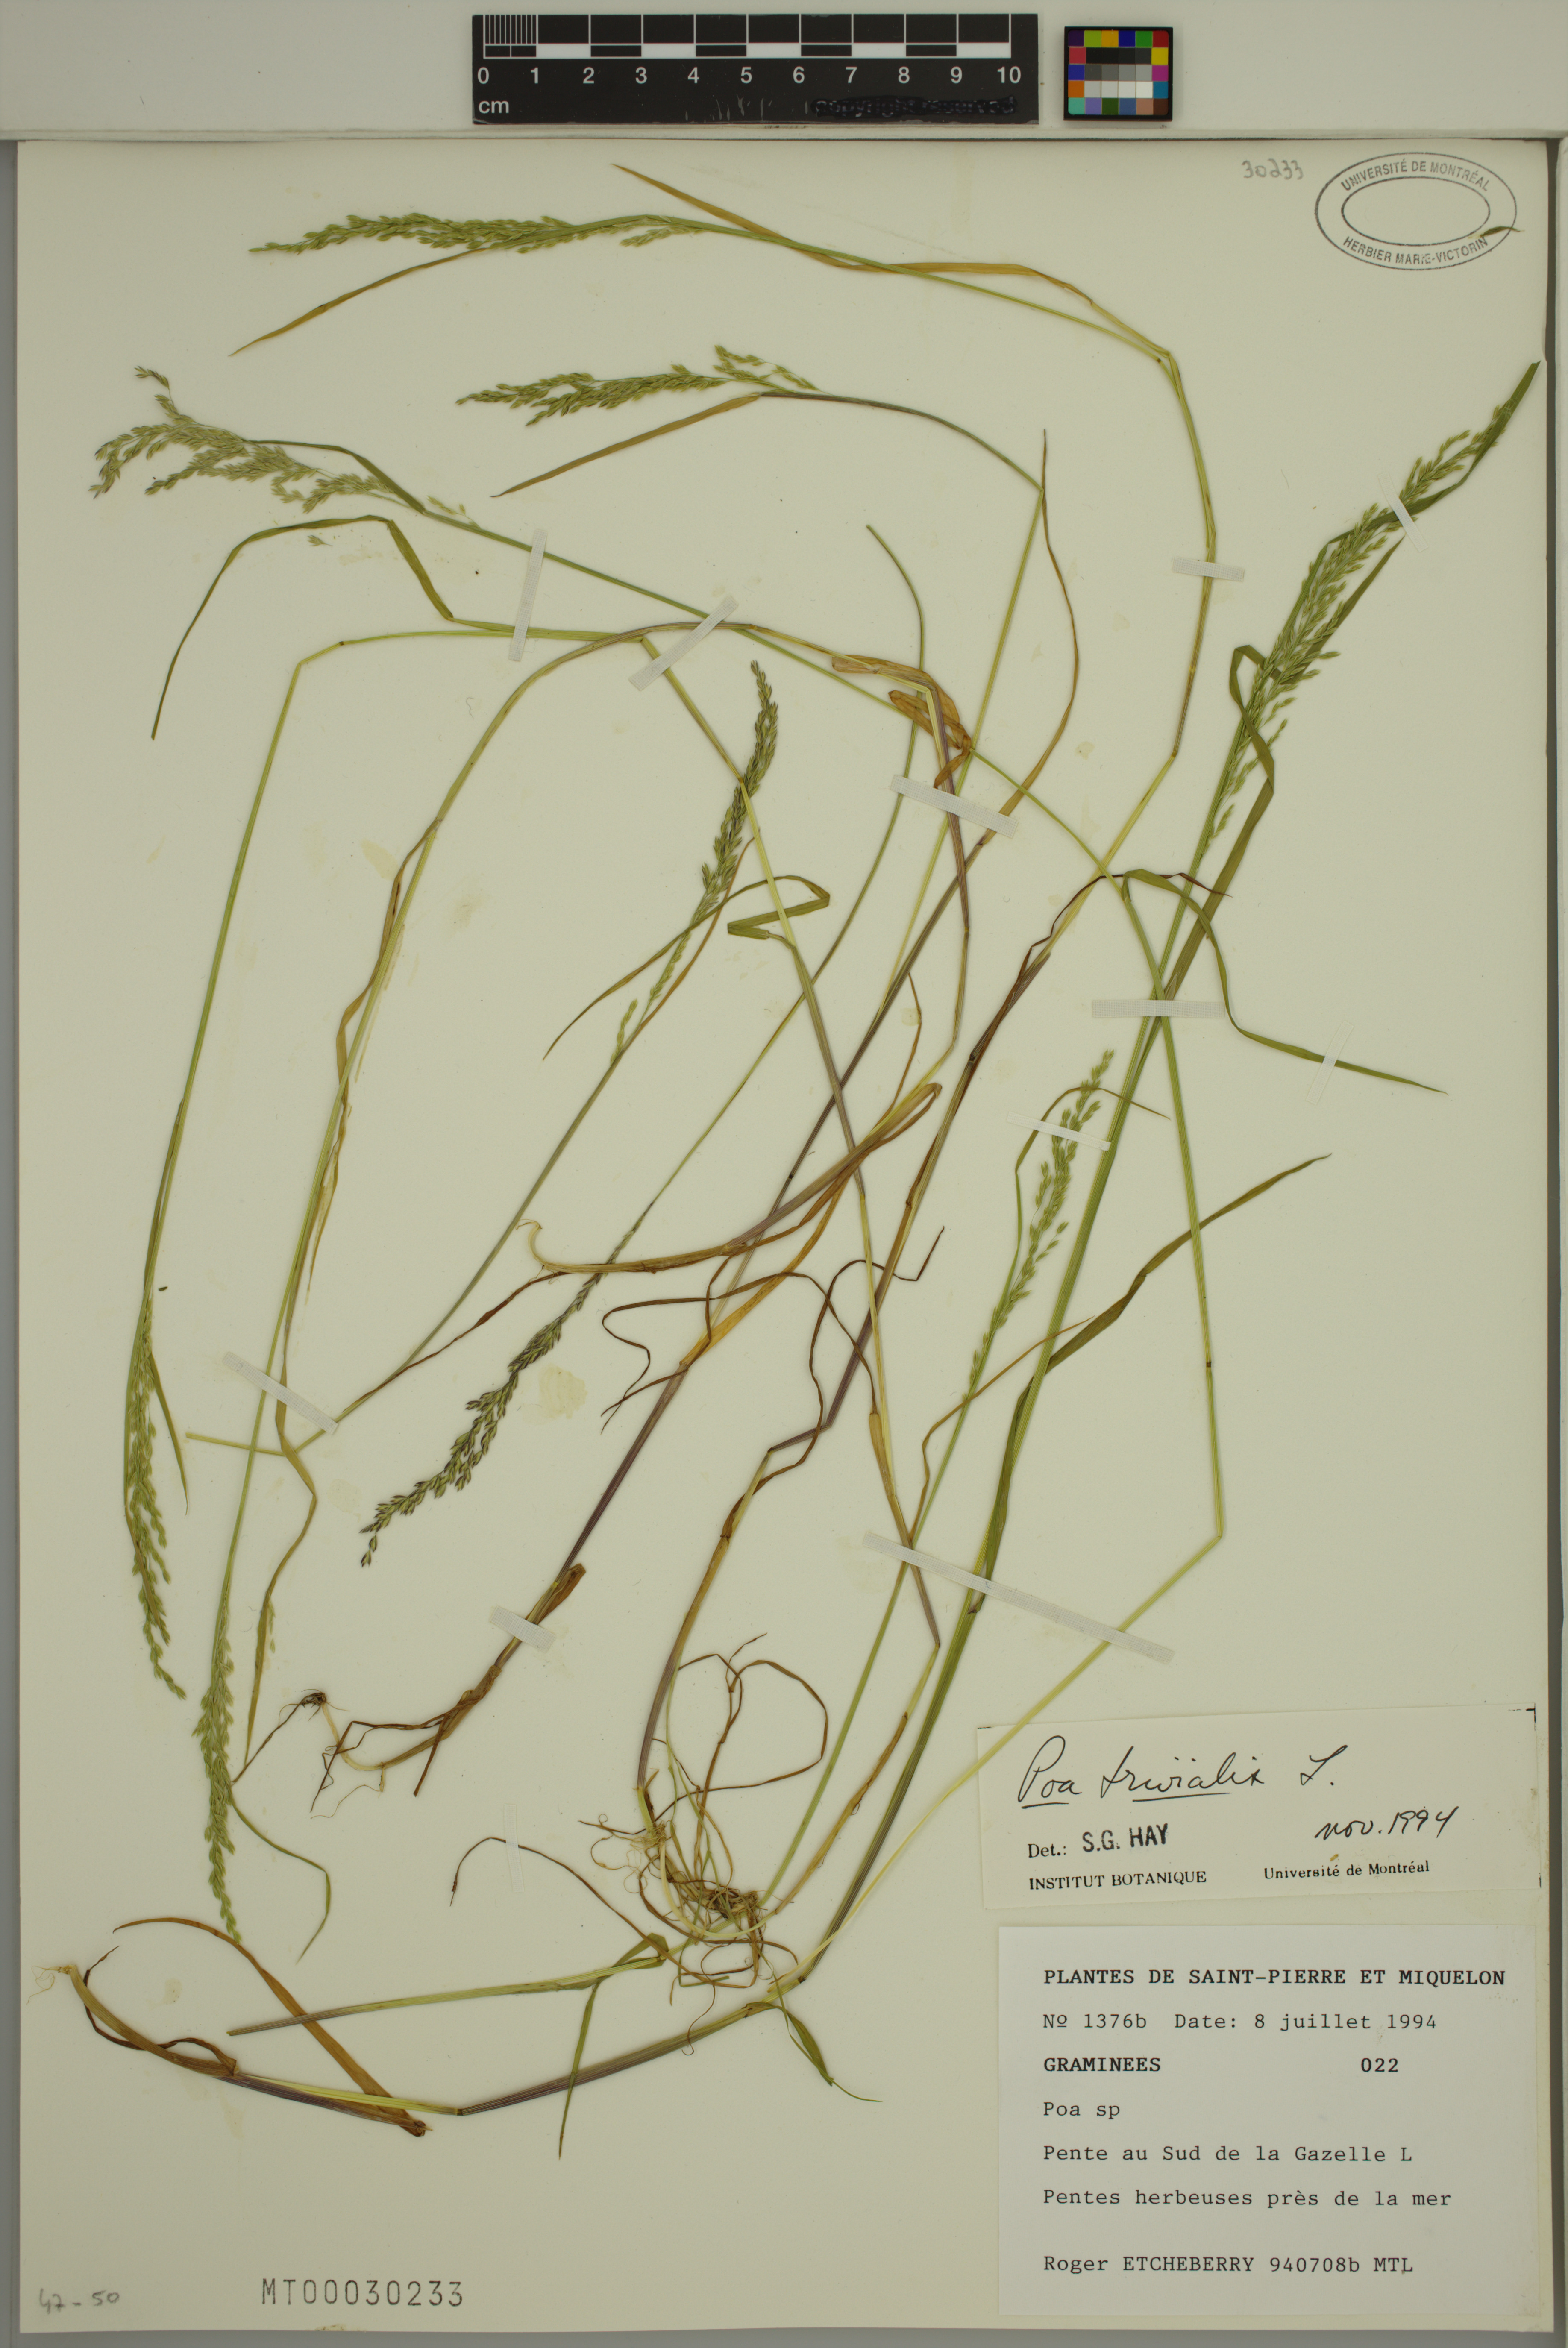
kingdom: Plantae
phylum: Tracheophyta
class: Liliopsida
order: Poales
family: Poaceae
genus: Poa
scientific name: Poa trivialis
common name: Rough bluegrass
